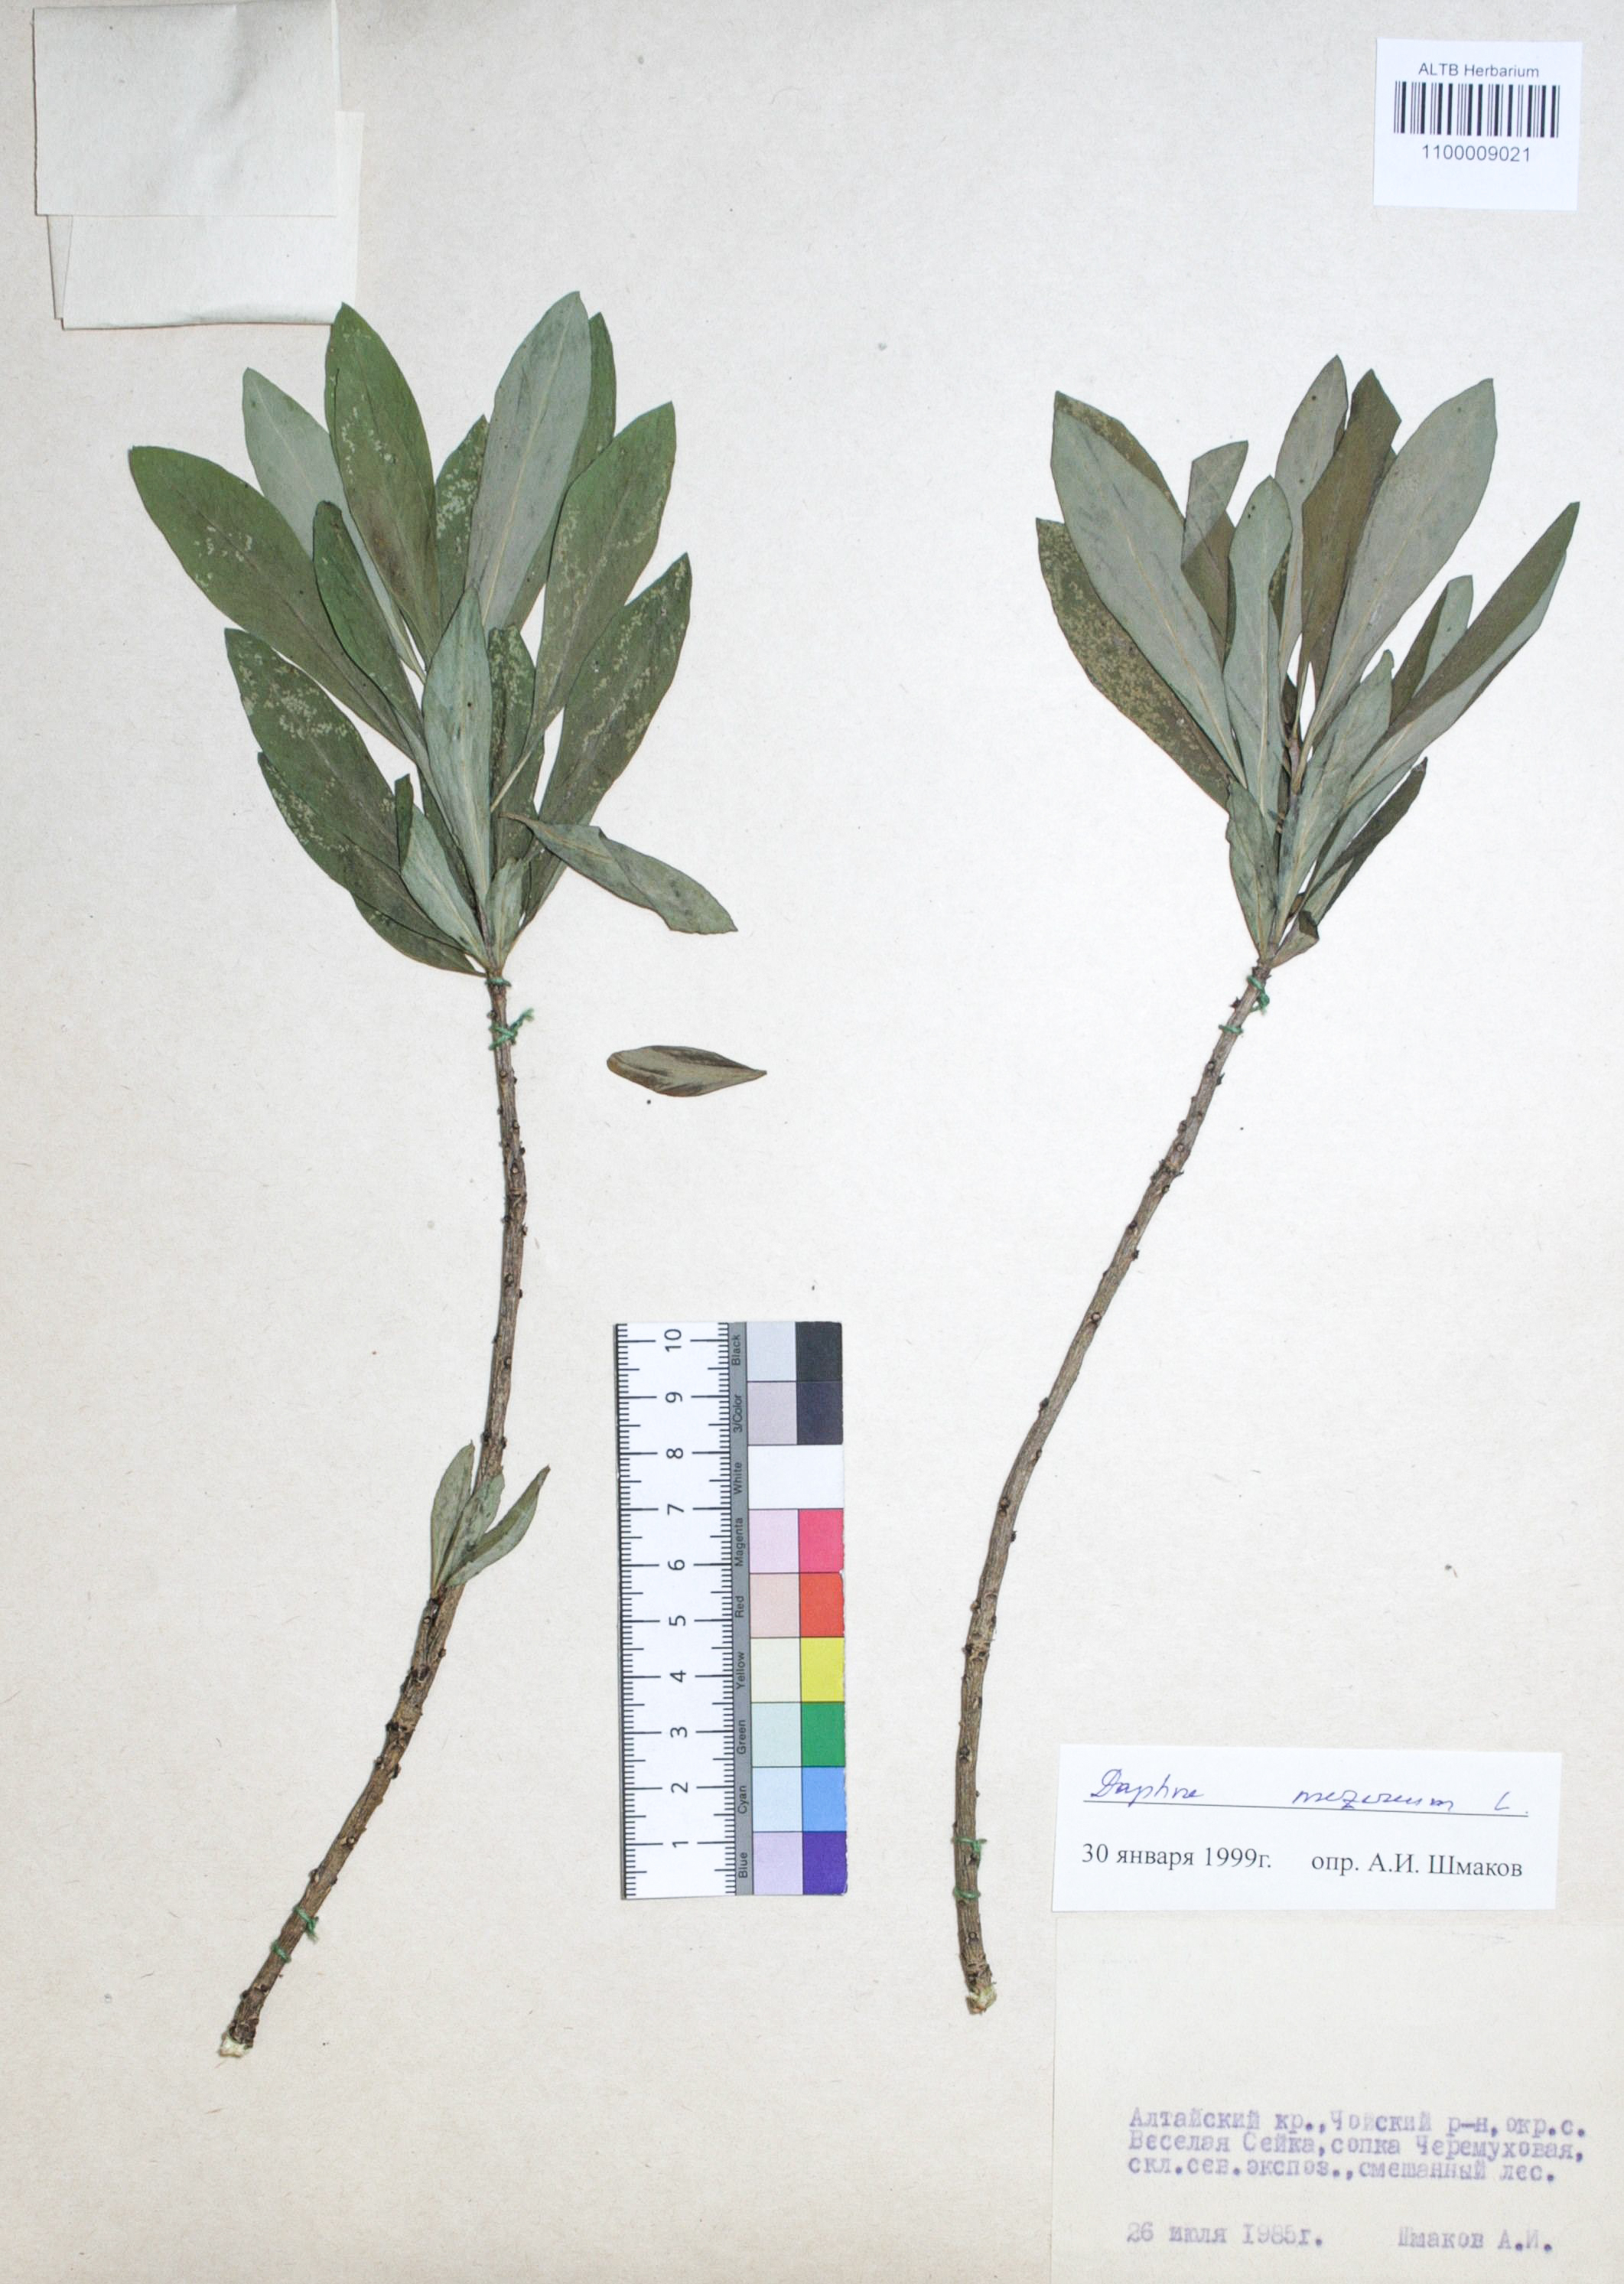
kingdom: Plantae
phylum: Tracheophyta
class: Magnoliopsida
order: Malvales
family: Thymelaeaceae
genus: Daphne
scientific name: Daphne mezereum
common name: Mezereon
